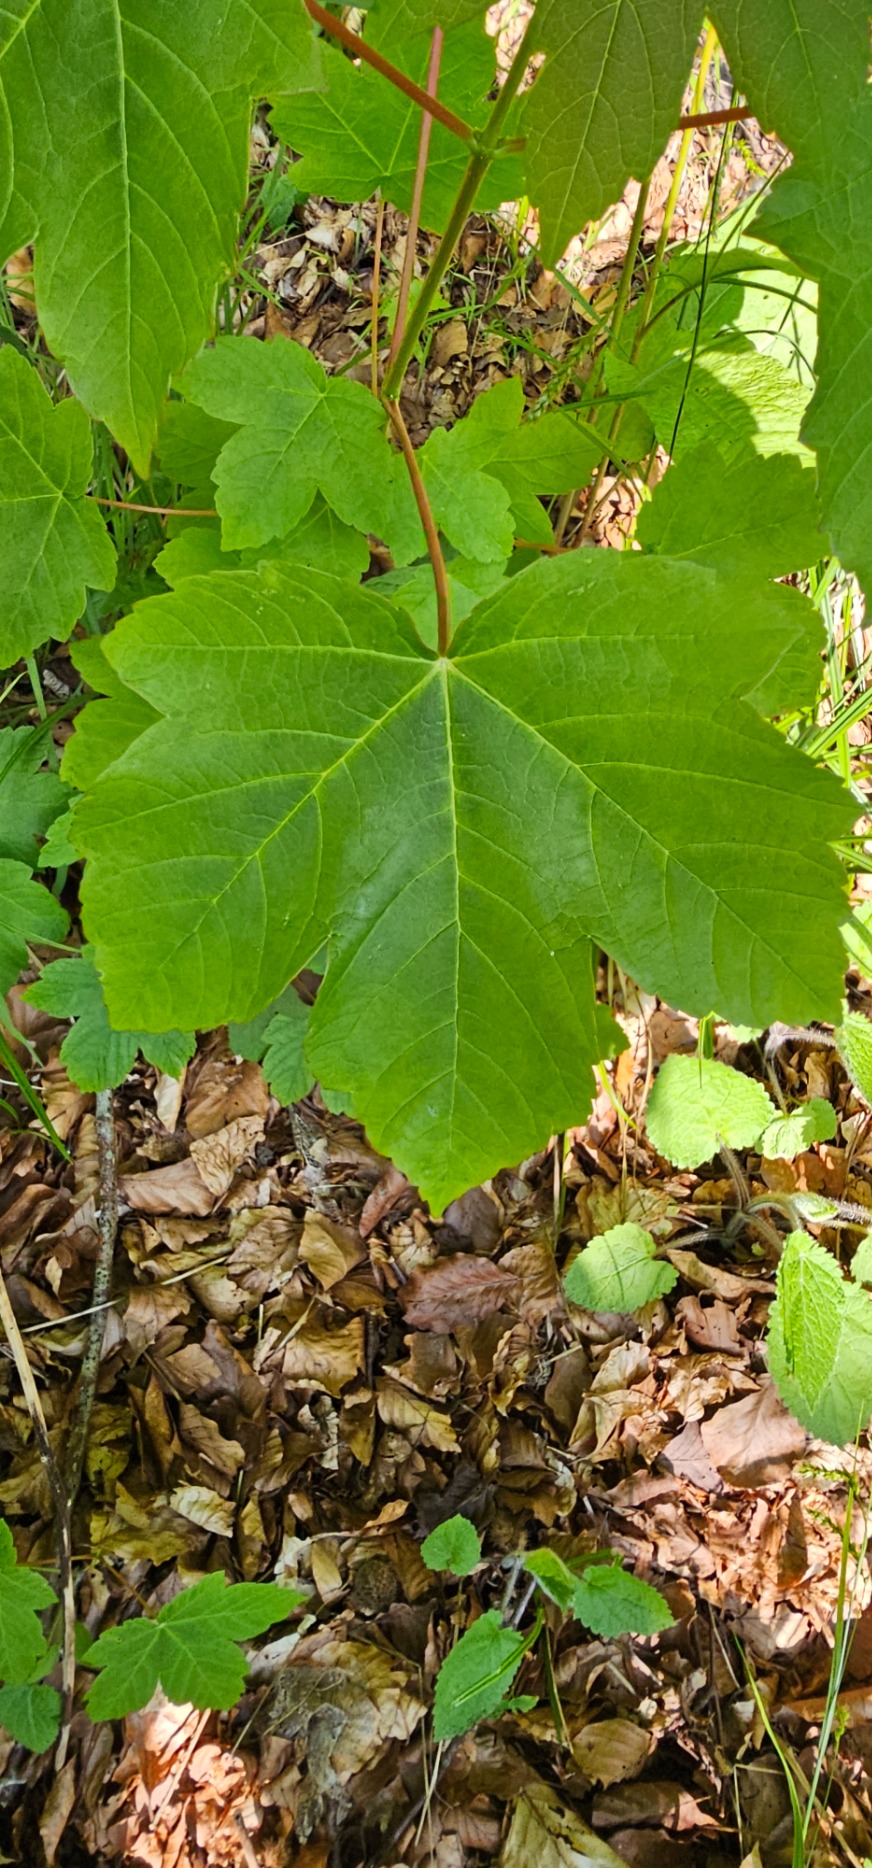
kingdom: Plantae
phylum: Tracheophyta
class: Magnoliopsida
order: Sapindales
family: Sapindaceae
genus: Acer
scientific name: Acer pseudoplatanus
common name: Ahorn
